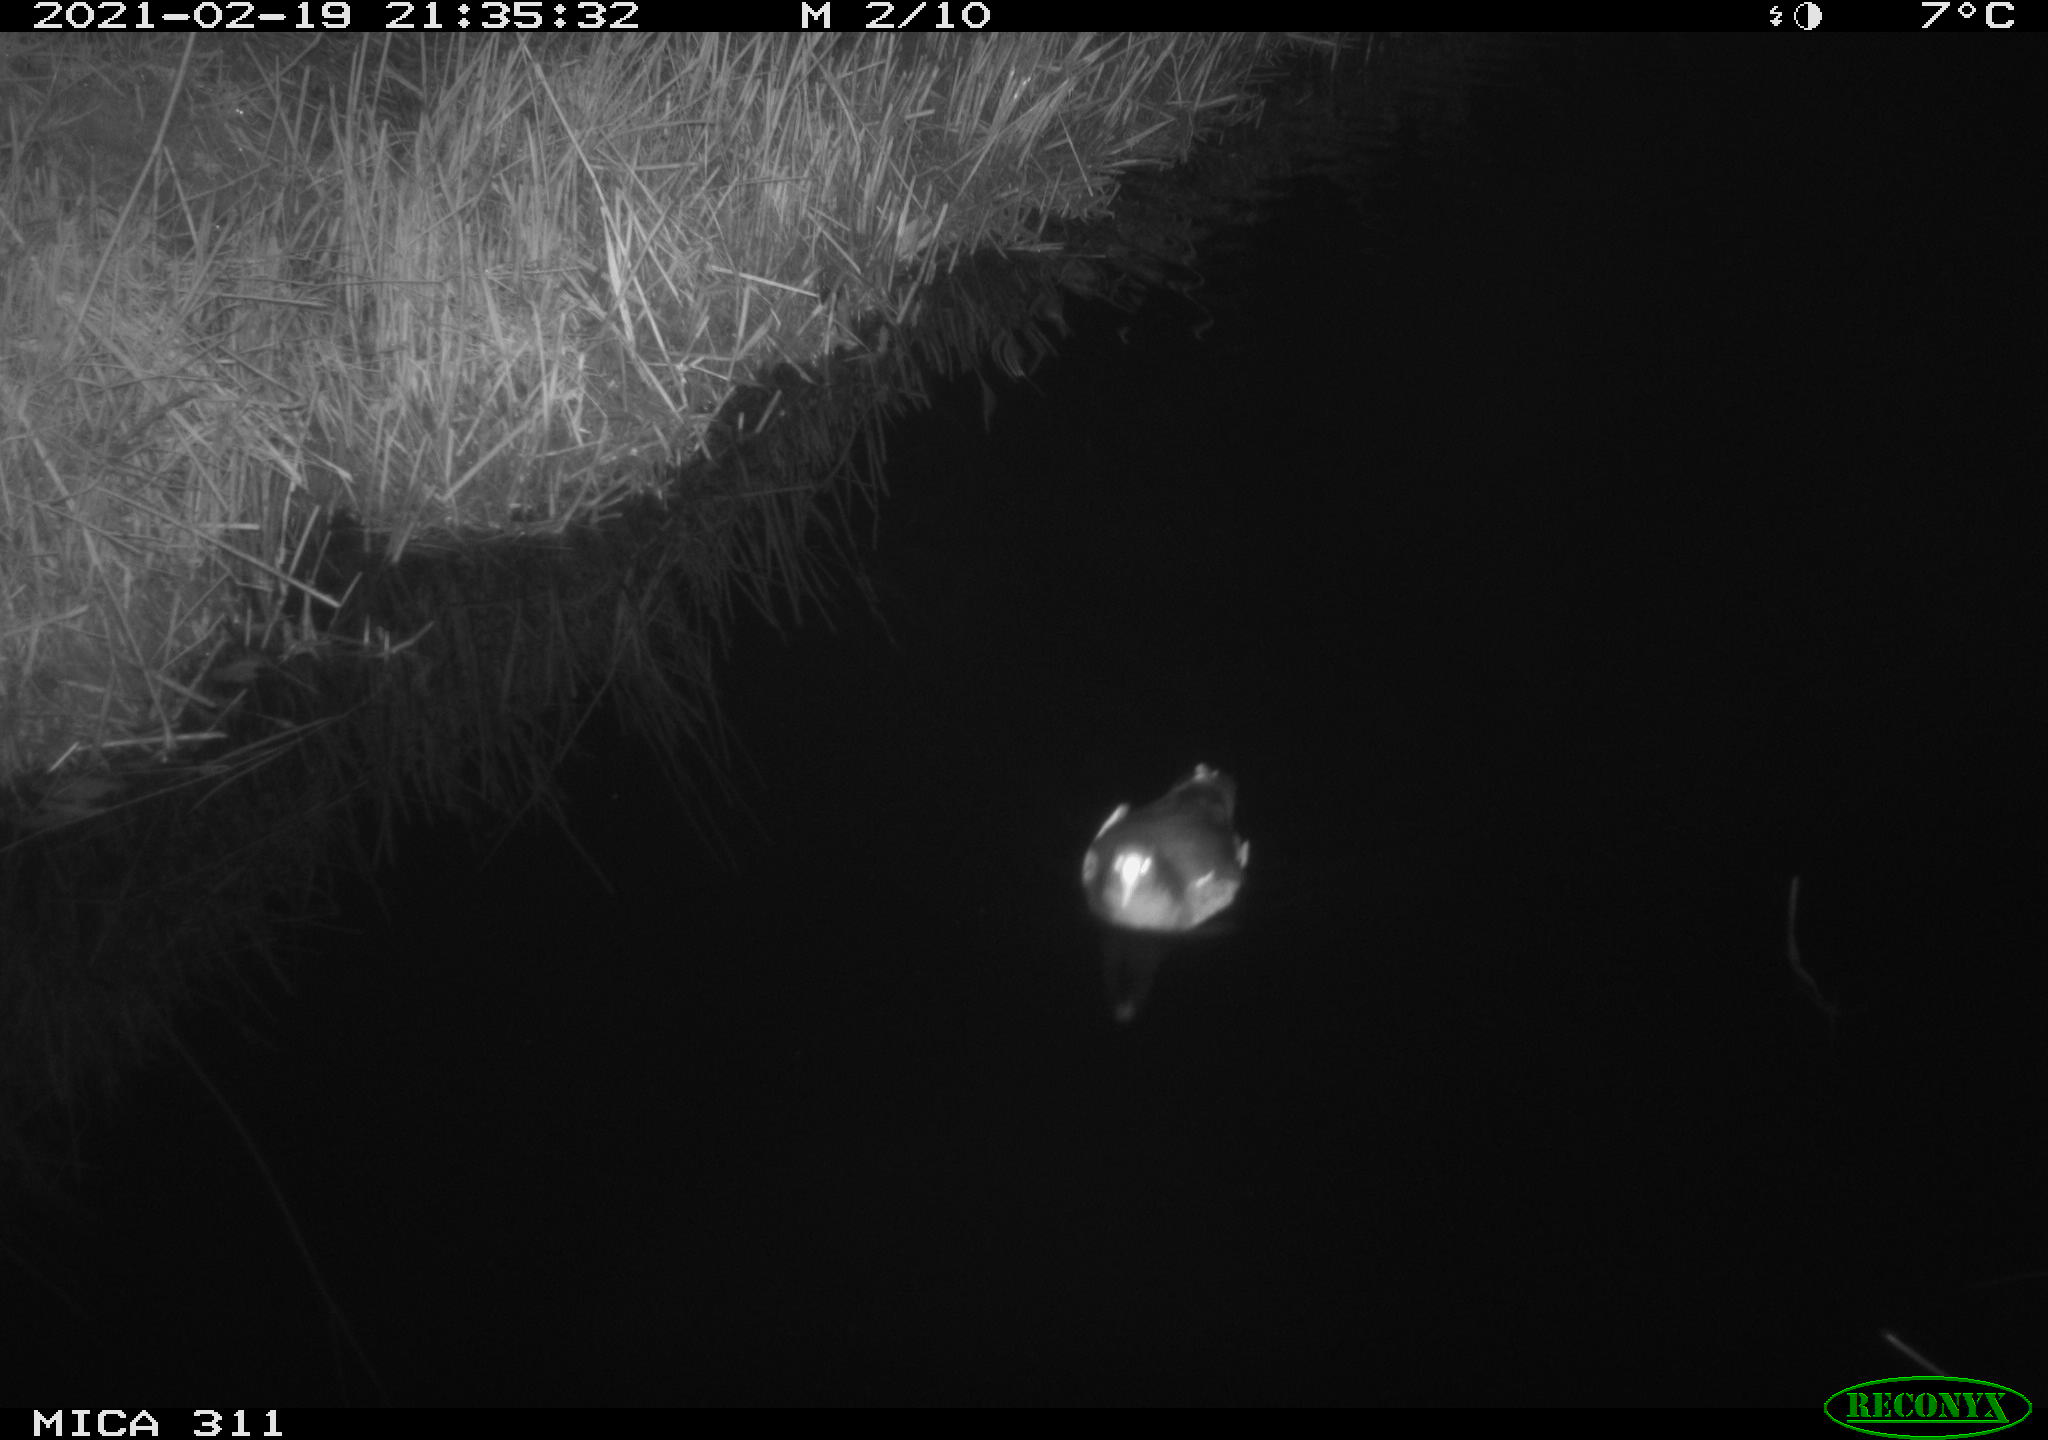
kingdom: Animalia
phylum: Chordata
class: Aves
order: Gruiformes
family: Rallidae
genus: Gallinula
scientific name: Gallinula chloropus
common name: Common moorhen
